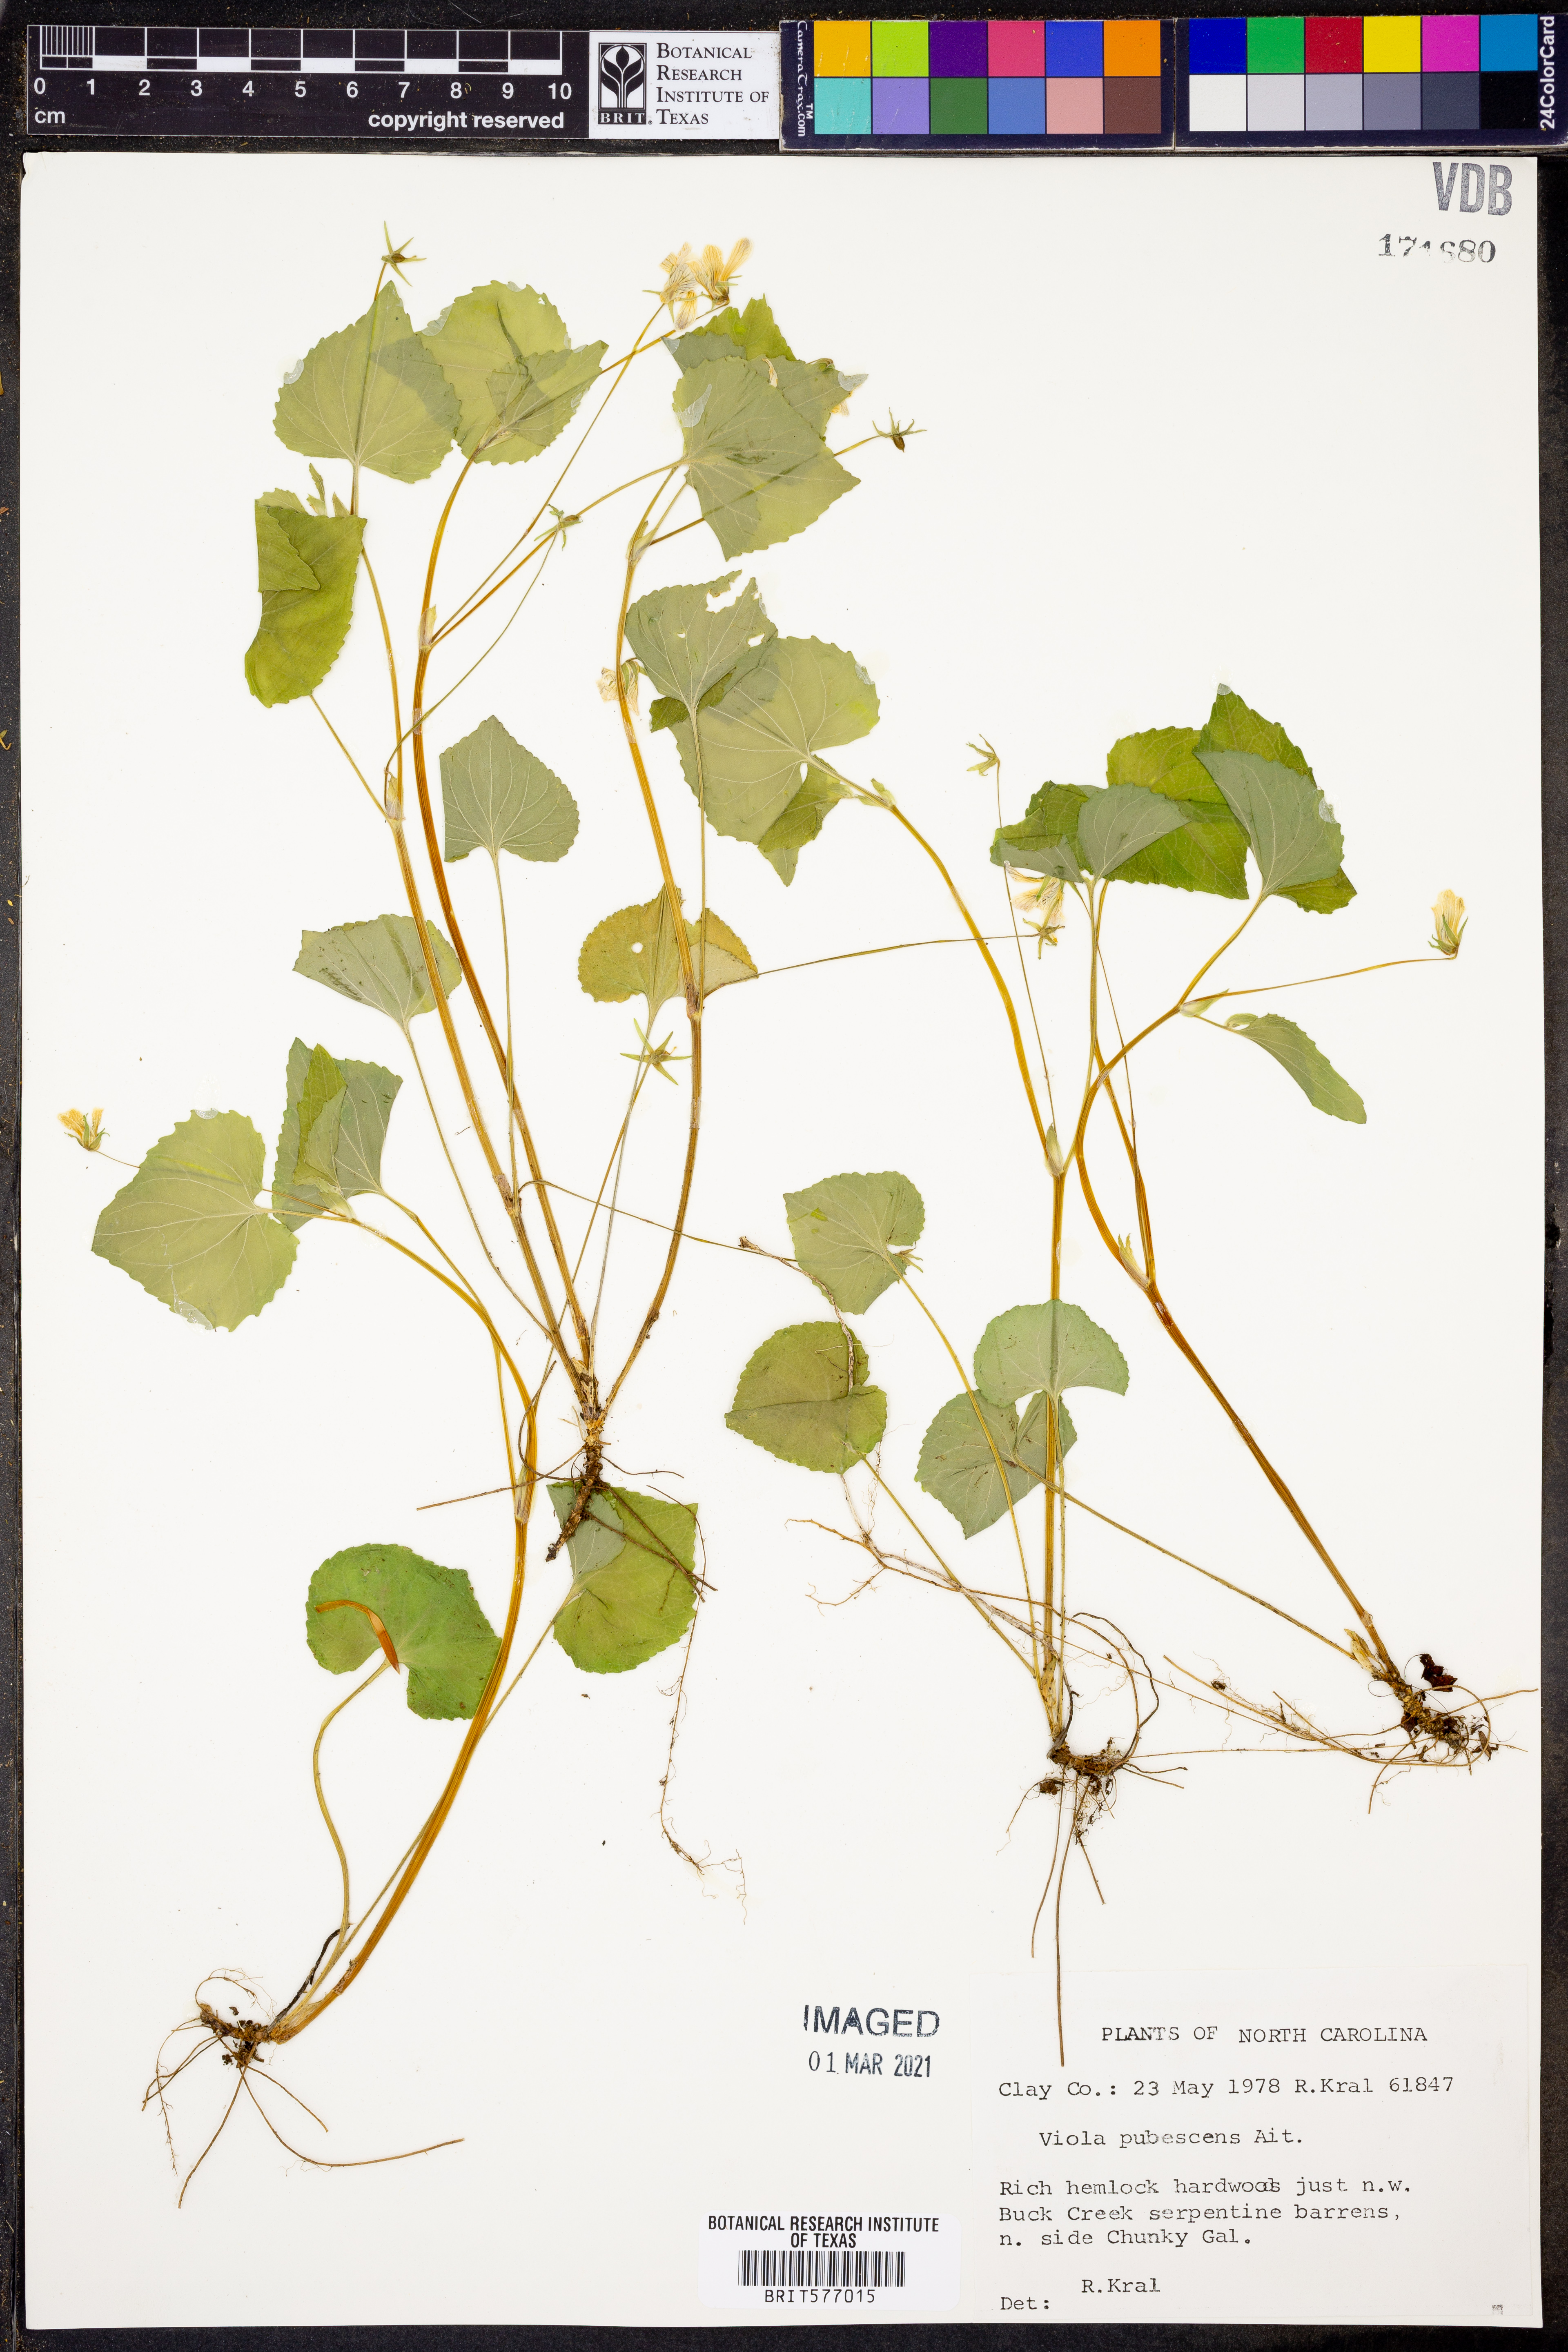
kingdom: Plantae
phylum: Tracheophyta
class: Magnoliopsida
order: Malpighiales
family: Violaceae
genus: Viola
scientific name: Viola pubescens
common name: Yellow forest violet
